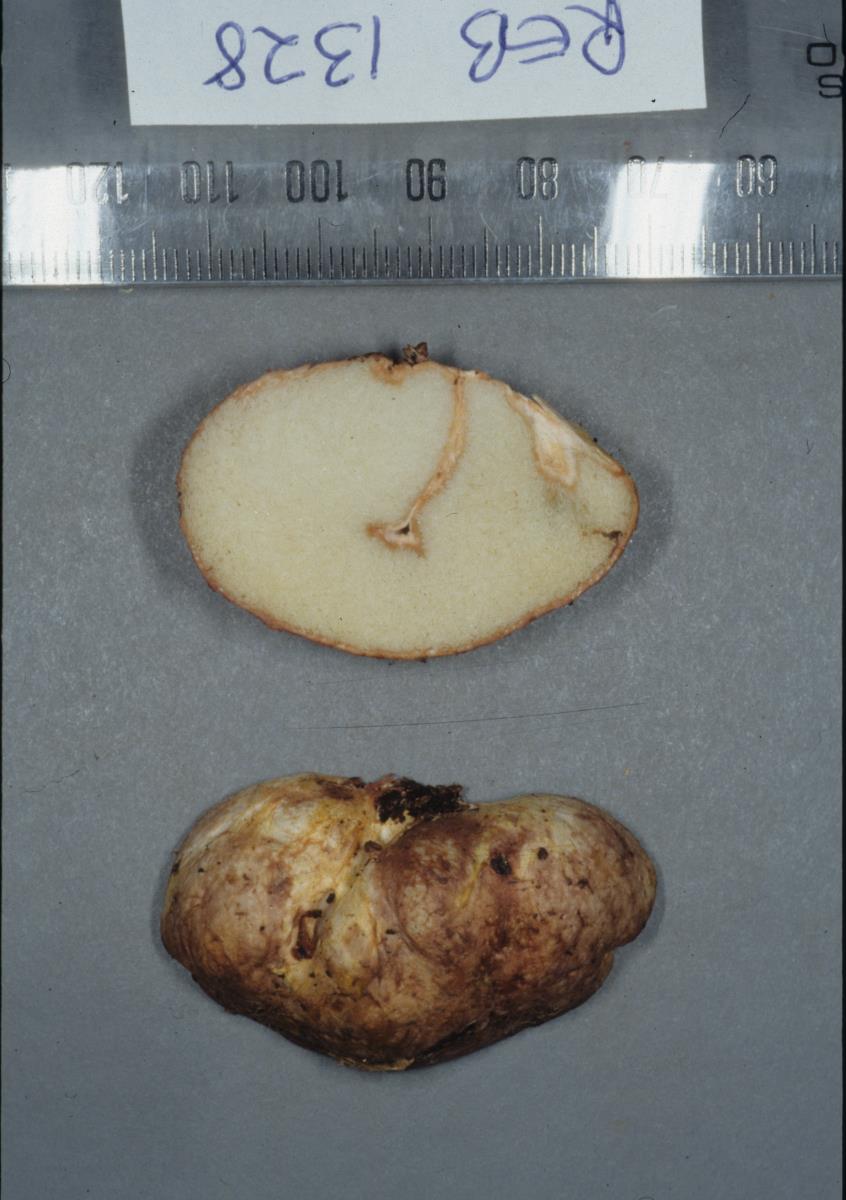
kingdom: Fungi
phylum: Basidiomycota
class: Agaricomycetes
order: Boletales
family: Rhizopogonaceae
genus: Rhizopogon
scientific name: Rhizopogon roseolus
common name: Blushing beard truffle
